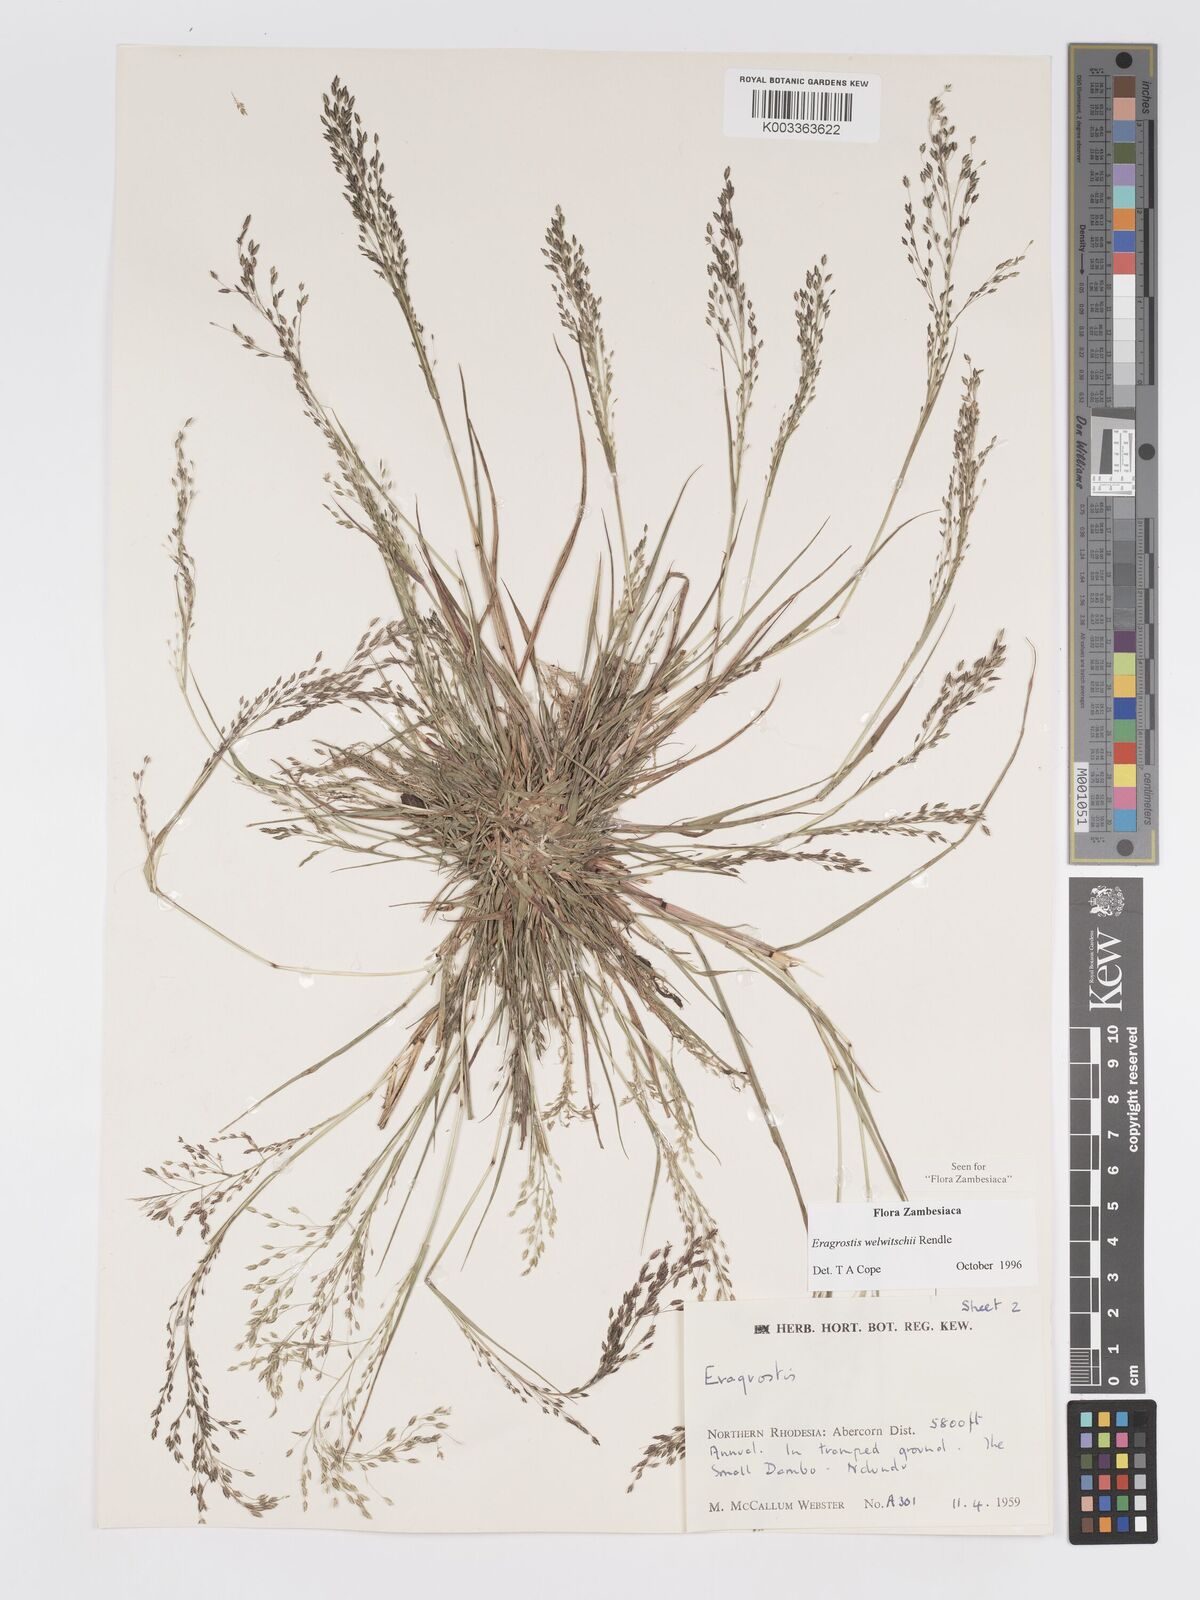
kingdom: Plantae
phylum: Tracheophyta
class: Liliopsida
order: Poales
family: Poaceae
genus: Eragrostis
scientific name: Eragrostis welwitschii
